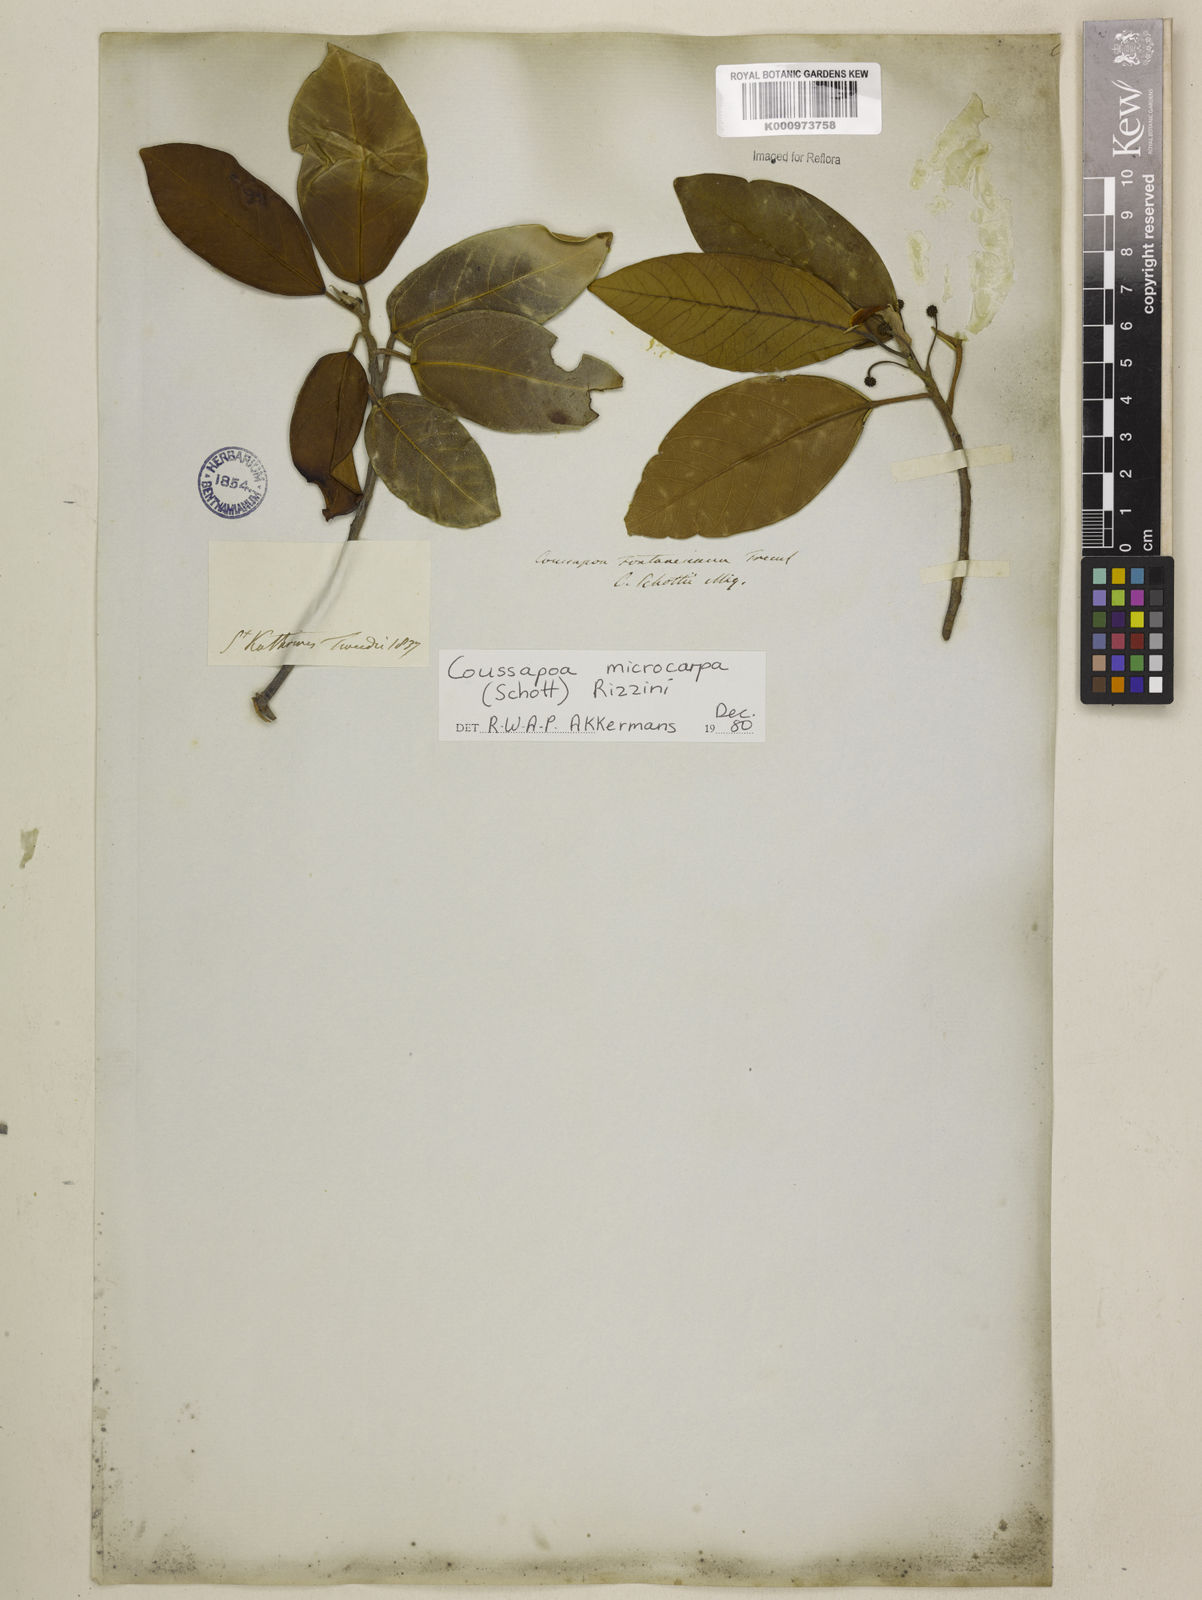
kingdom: Plantae
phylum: Tracheophyta
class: Magnoliopsida
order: Rosales
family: Urticaceae
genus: Coussapoa
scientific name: Coussapoa microcarpa
